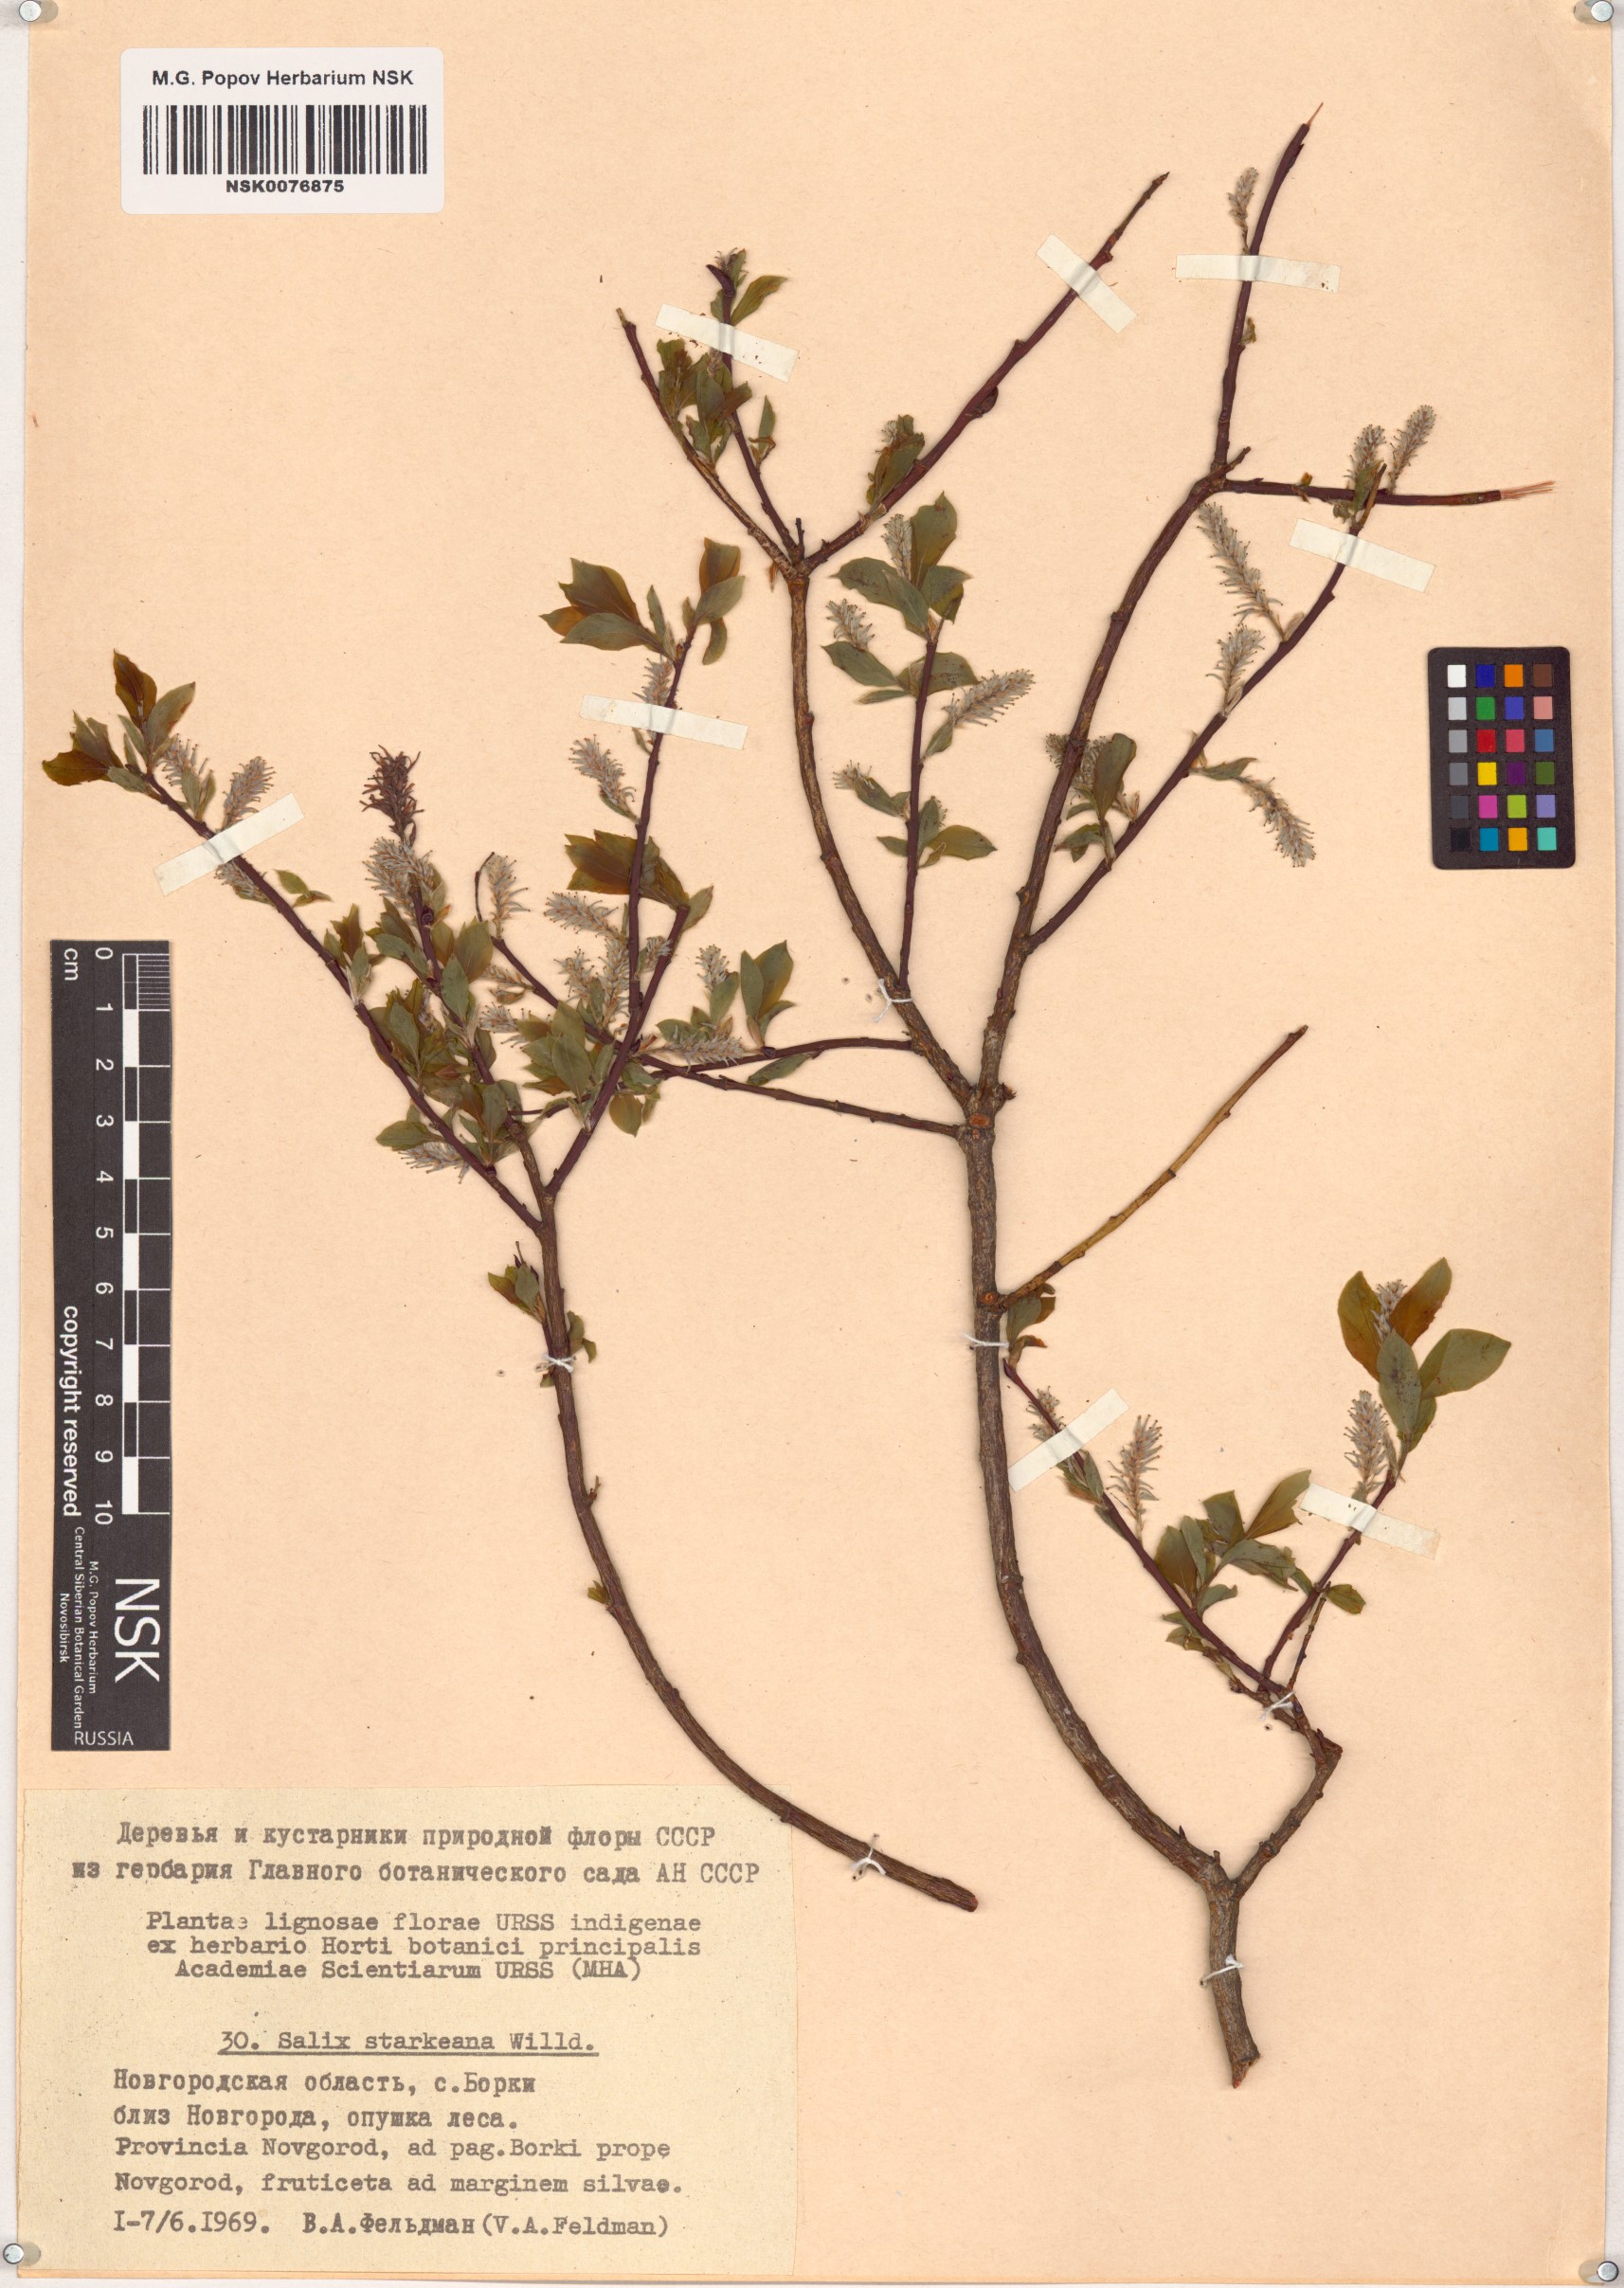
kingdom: Plantae
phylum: Tracheophyta
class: Magnoliopsida
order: Malpighiales
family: Salicaceae
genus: Salix
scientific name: Salix starkeana
